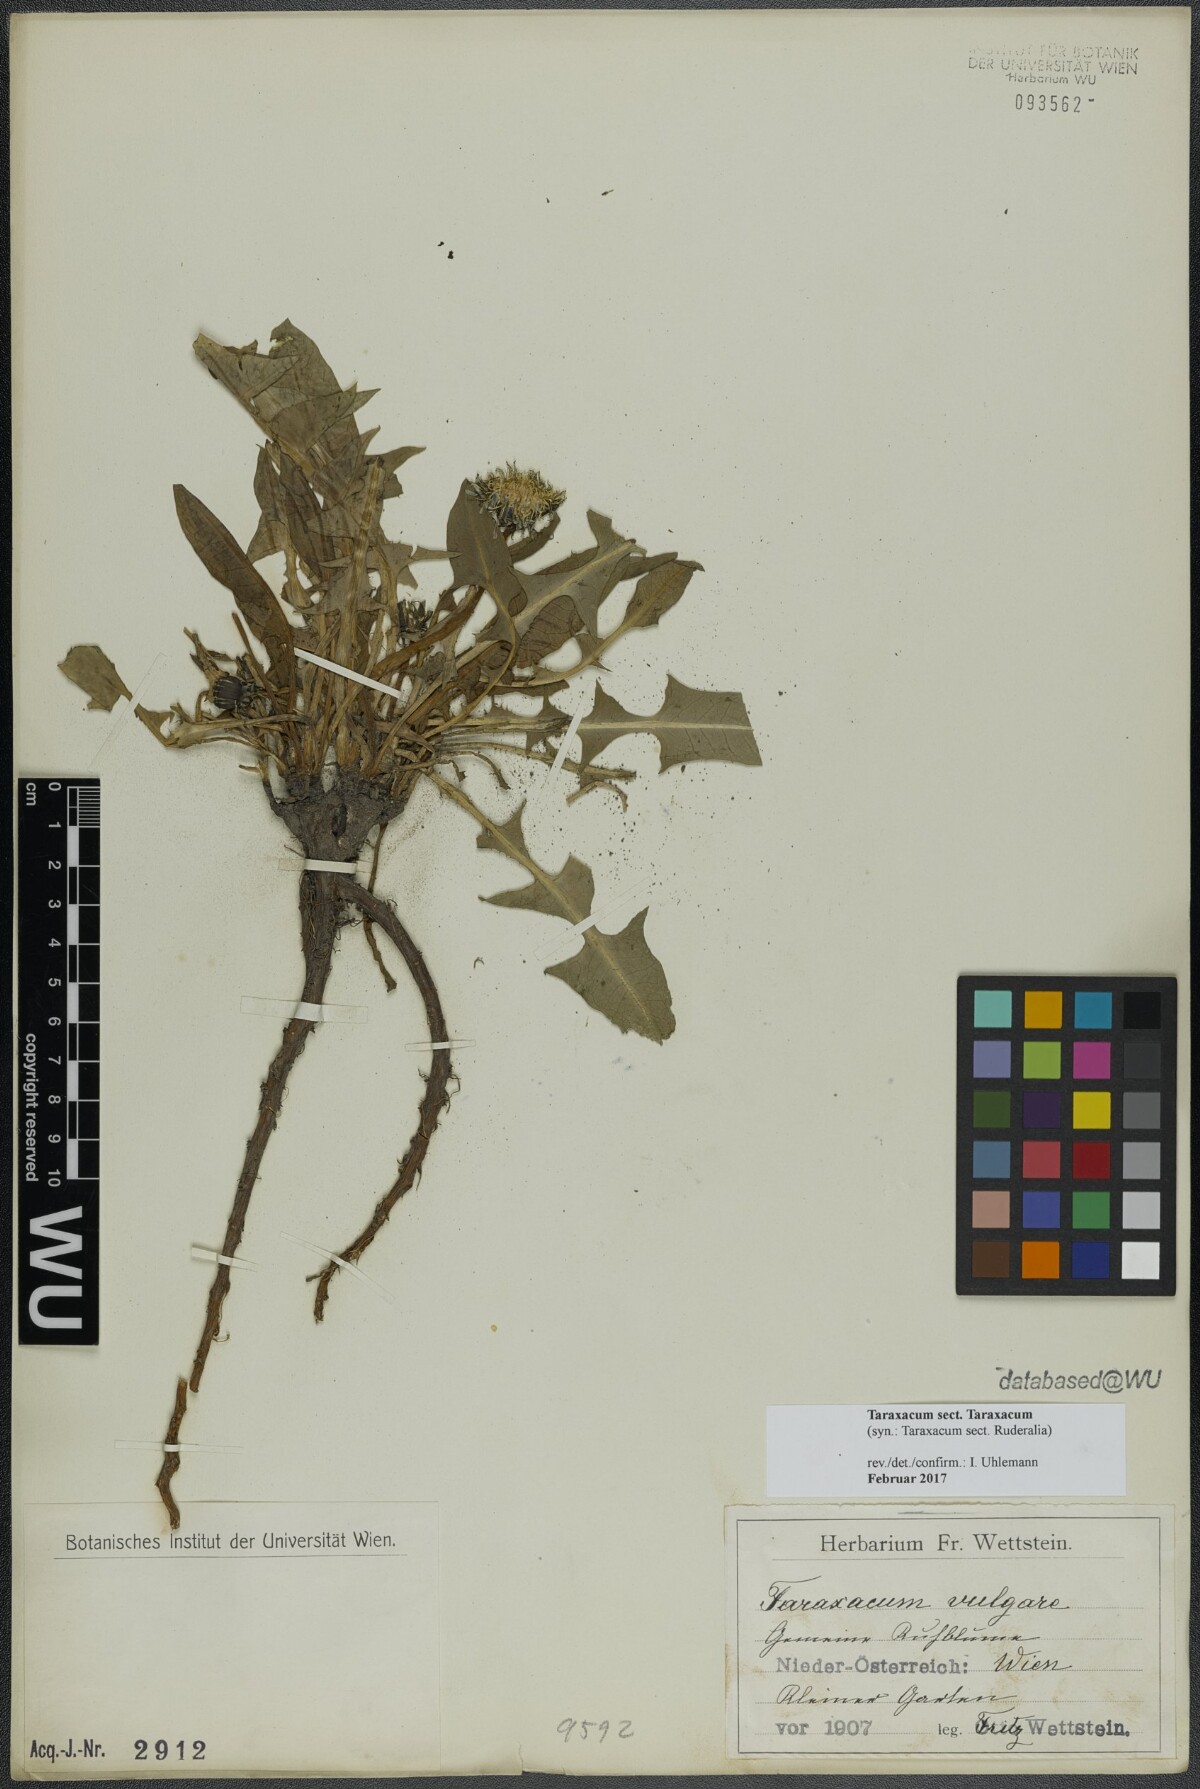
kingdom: Plantae
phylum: Tracheophyta
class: Magnoliopsida
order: Asterales
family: Asteraceae
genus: Taraxacum
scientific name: Taraxacum
